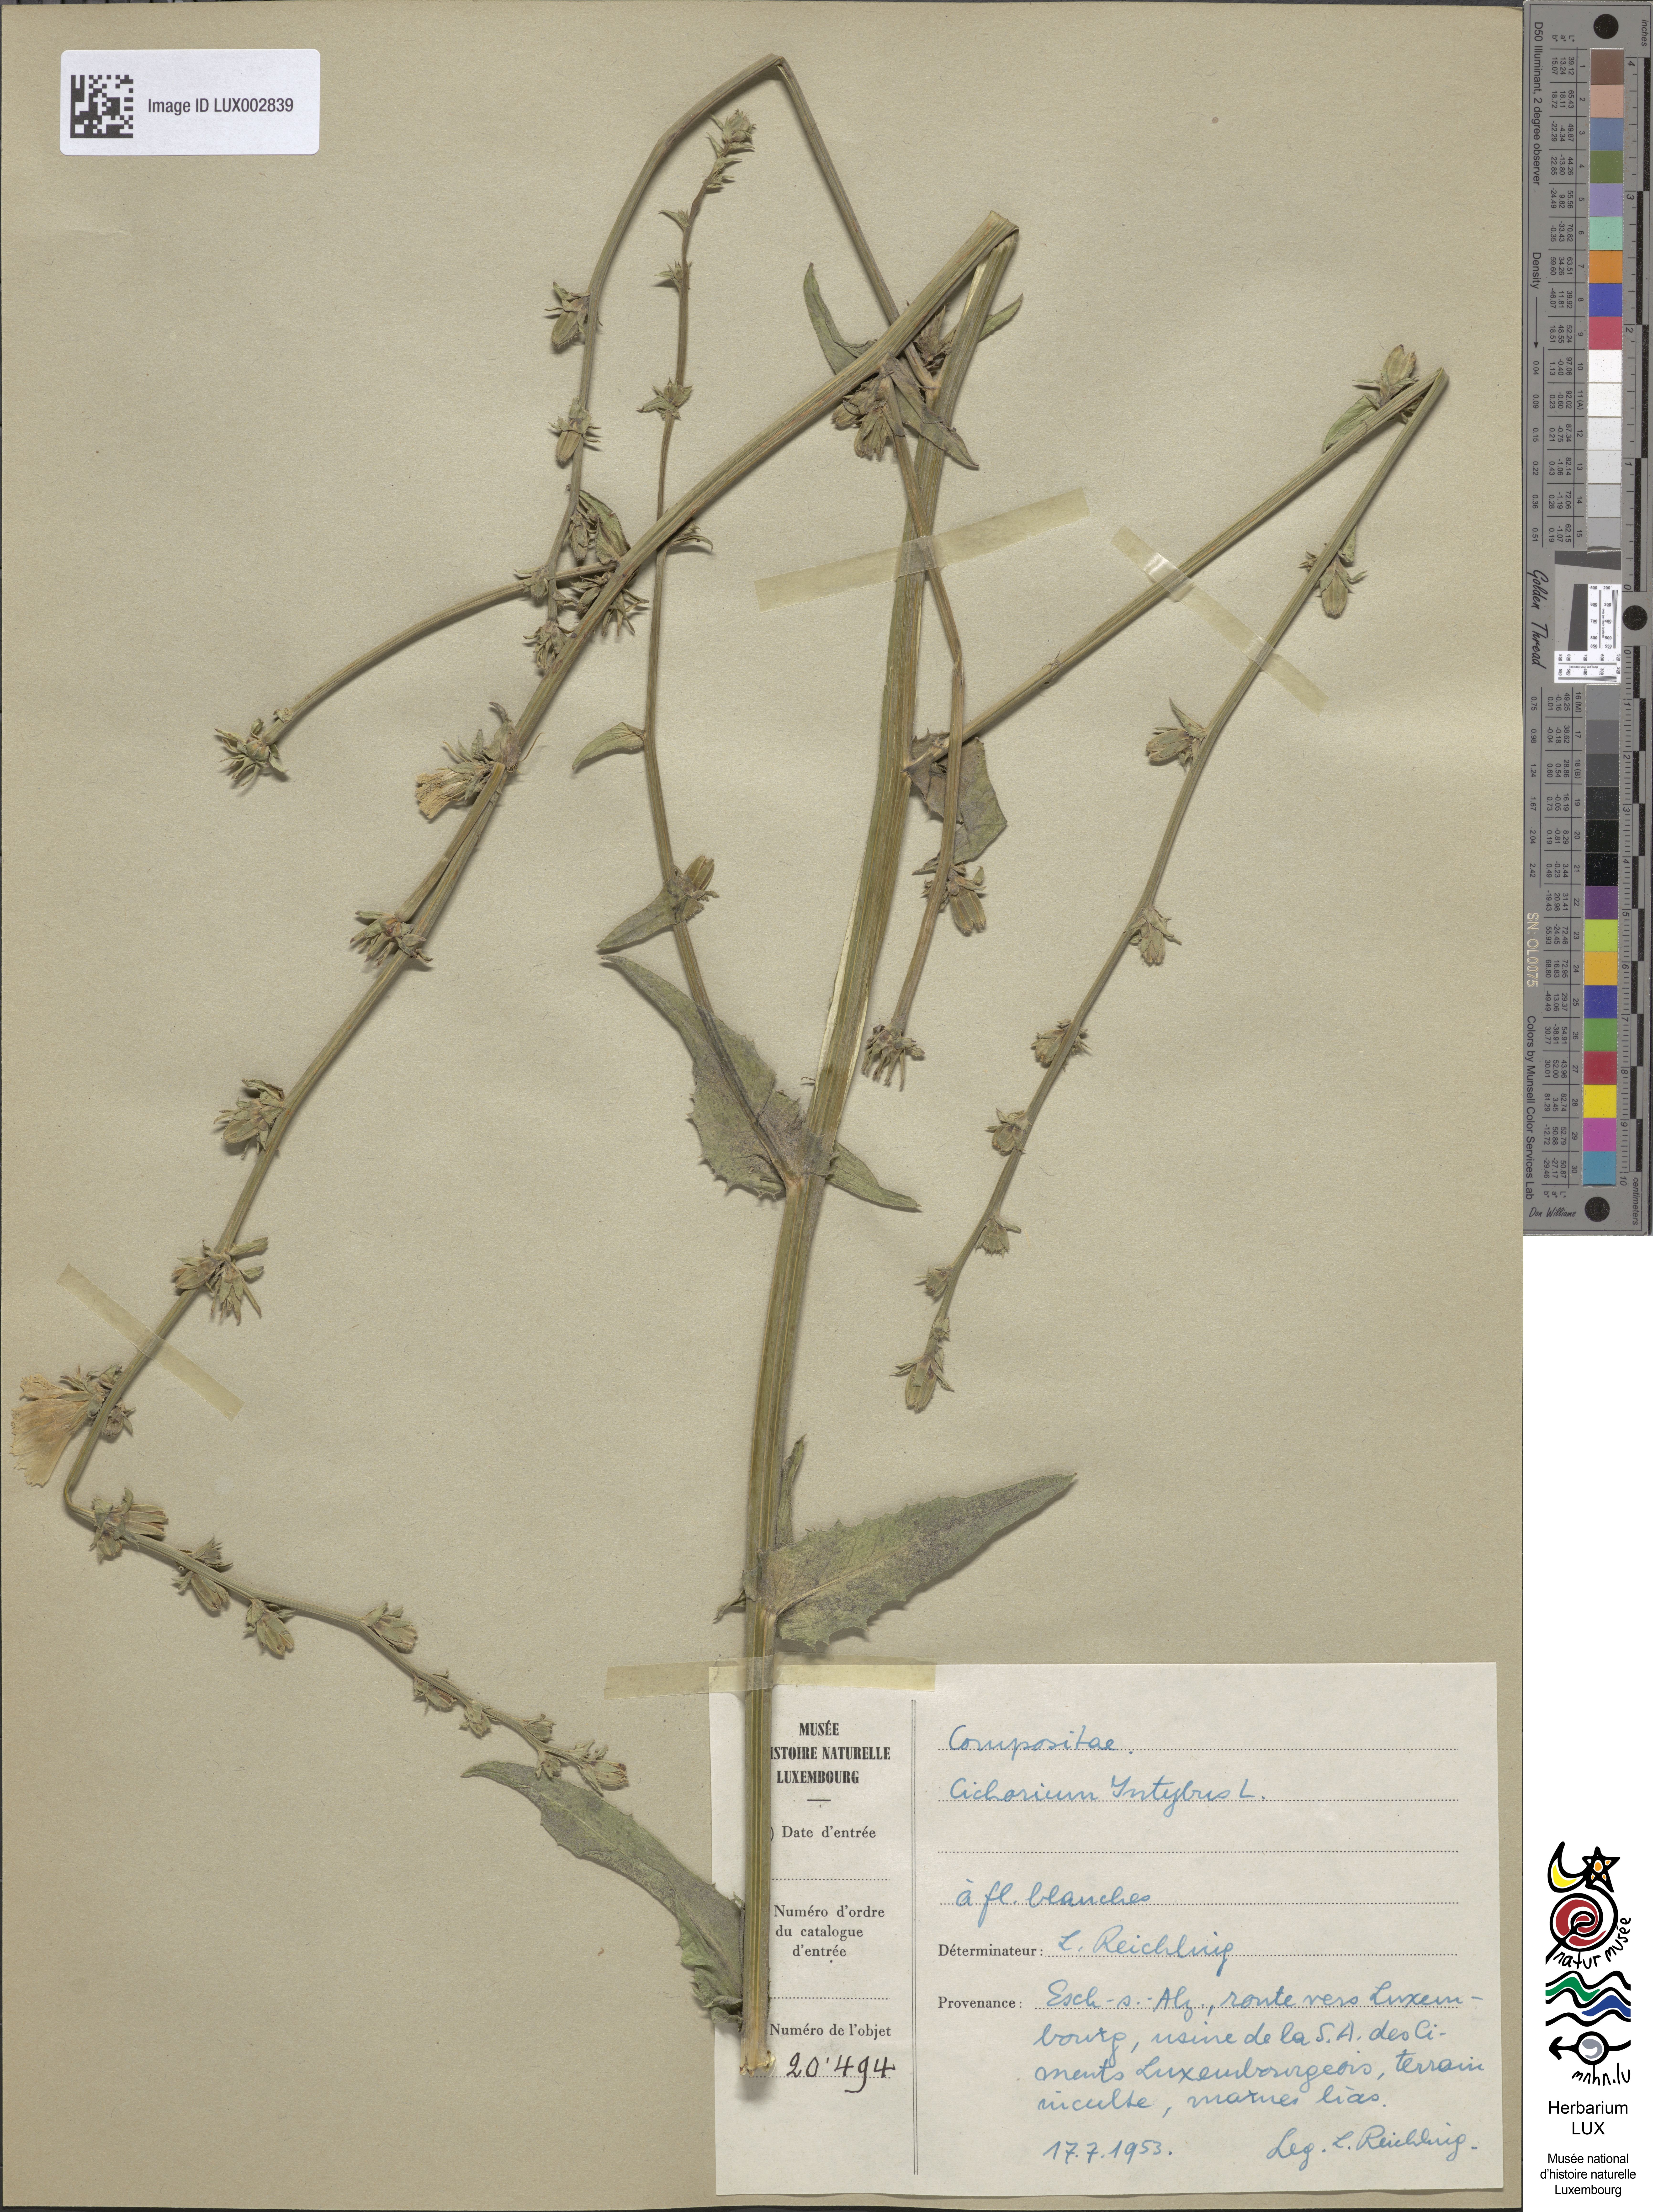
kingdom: Plantae
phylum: Tracheophyta
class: Magnoliopsida
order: Asterales
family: Asteraceae
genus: Cichorium
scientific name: Cichorium intybus
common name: Chicory
